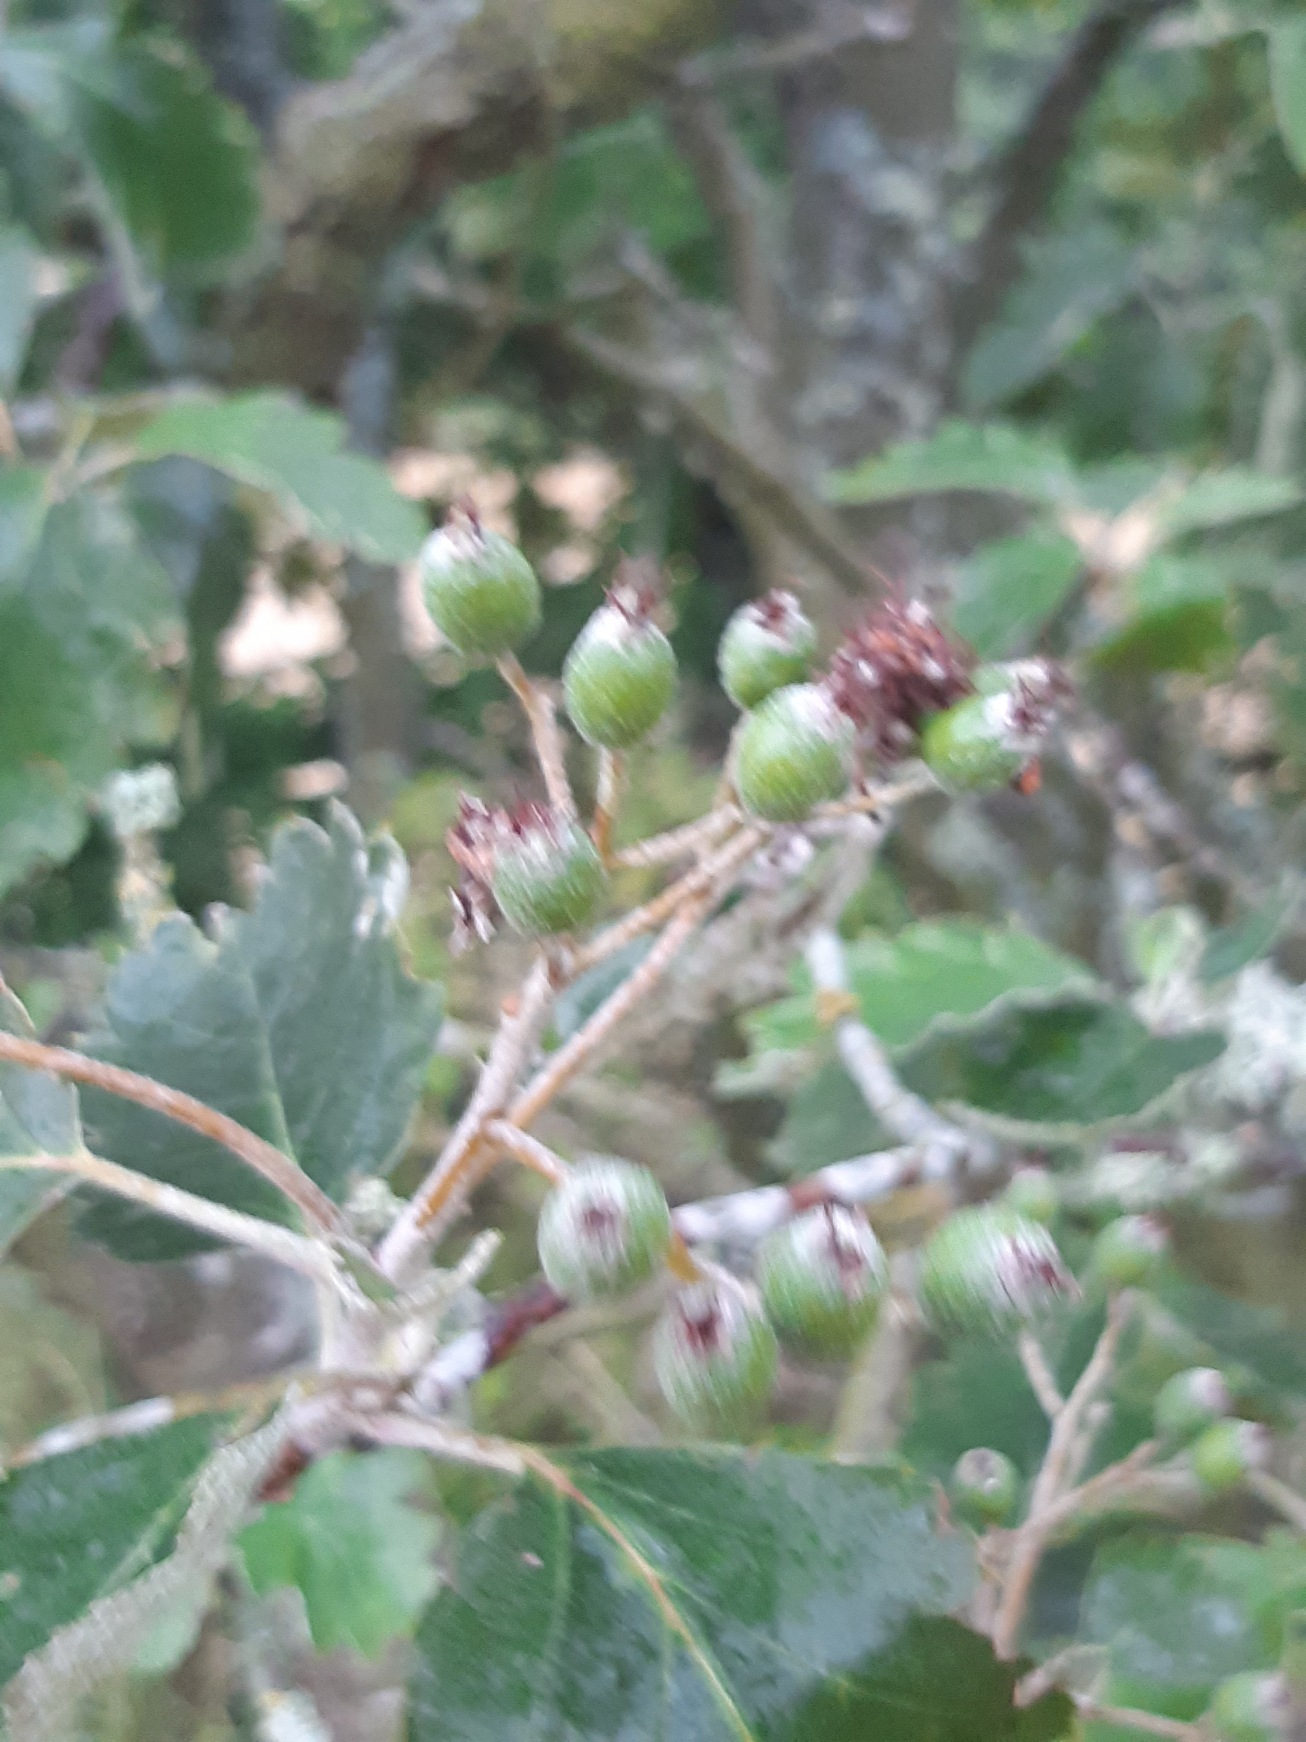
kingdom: Plantae
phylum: Tracheophyta
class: Magnoliopsida
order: Rosales
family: Rosaceae
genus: Scandosorbus
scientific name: Scandosorbus intermedia
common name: Selje-røn
